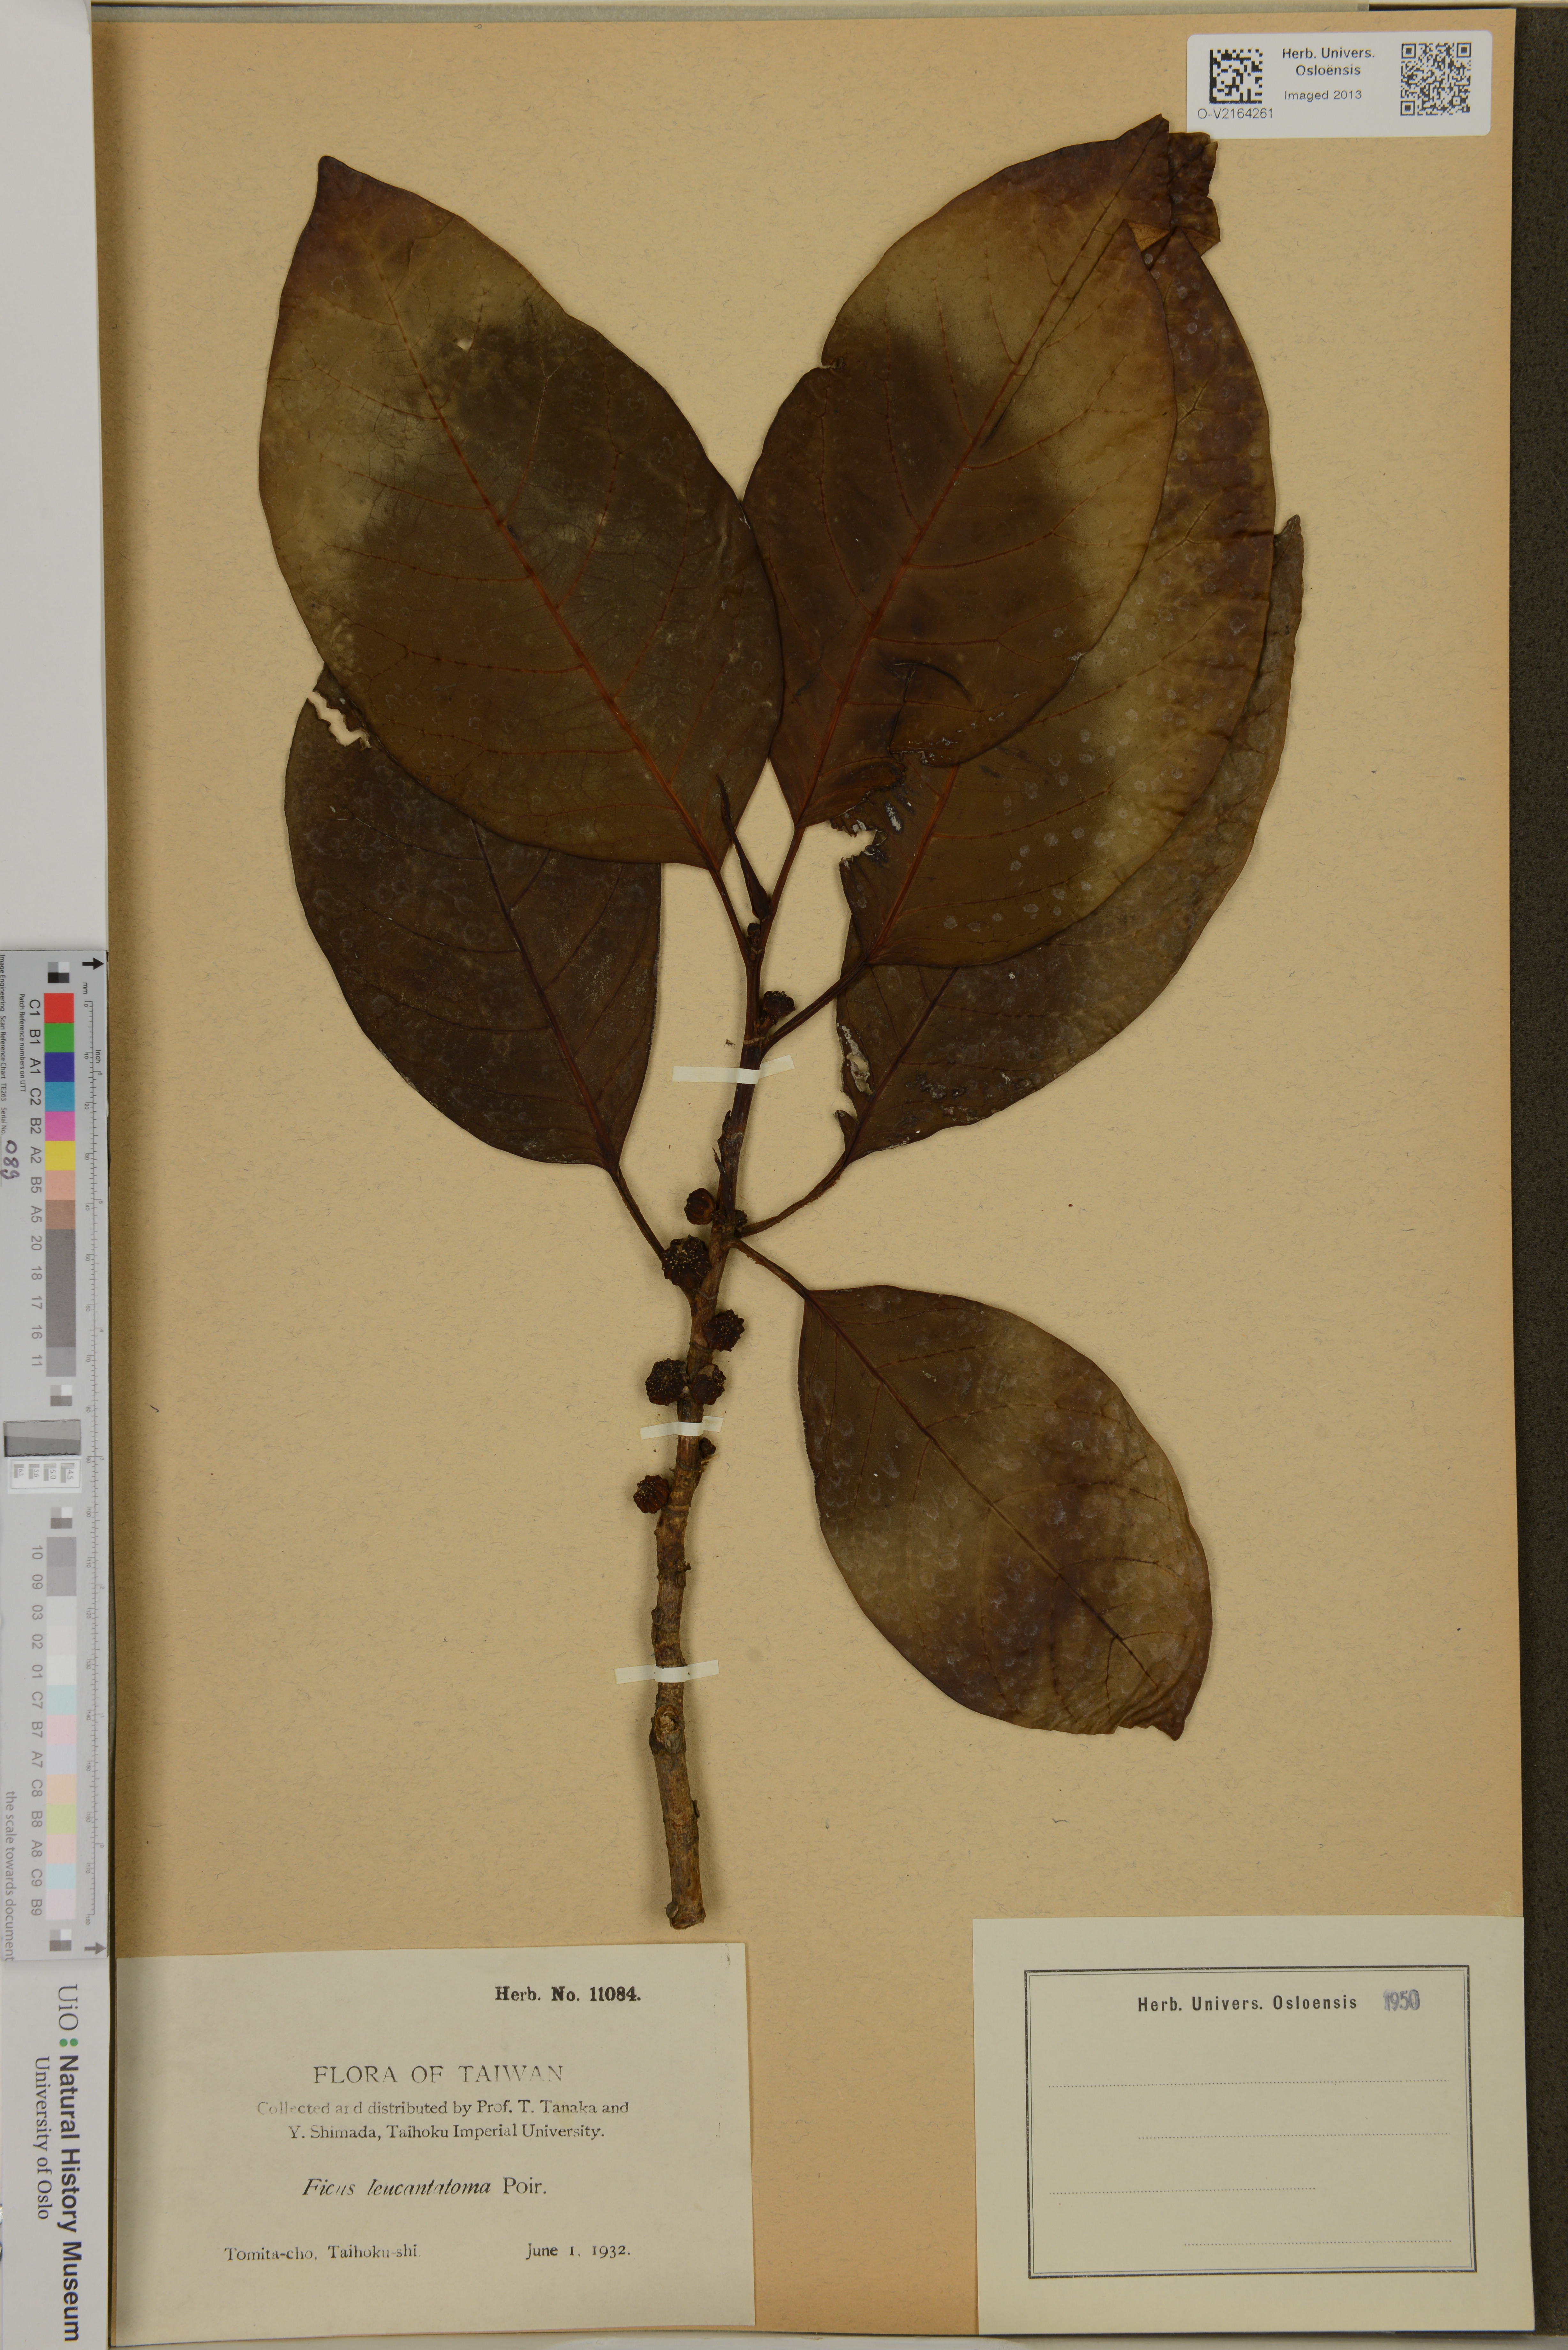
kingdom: Plantae
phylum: Tracheophyta
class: Magnoliopsida
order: Rosales
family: Moraceae
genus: Ficus
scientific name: Ficus septica
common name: Septic fig
